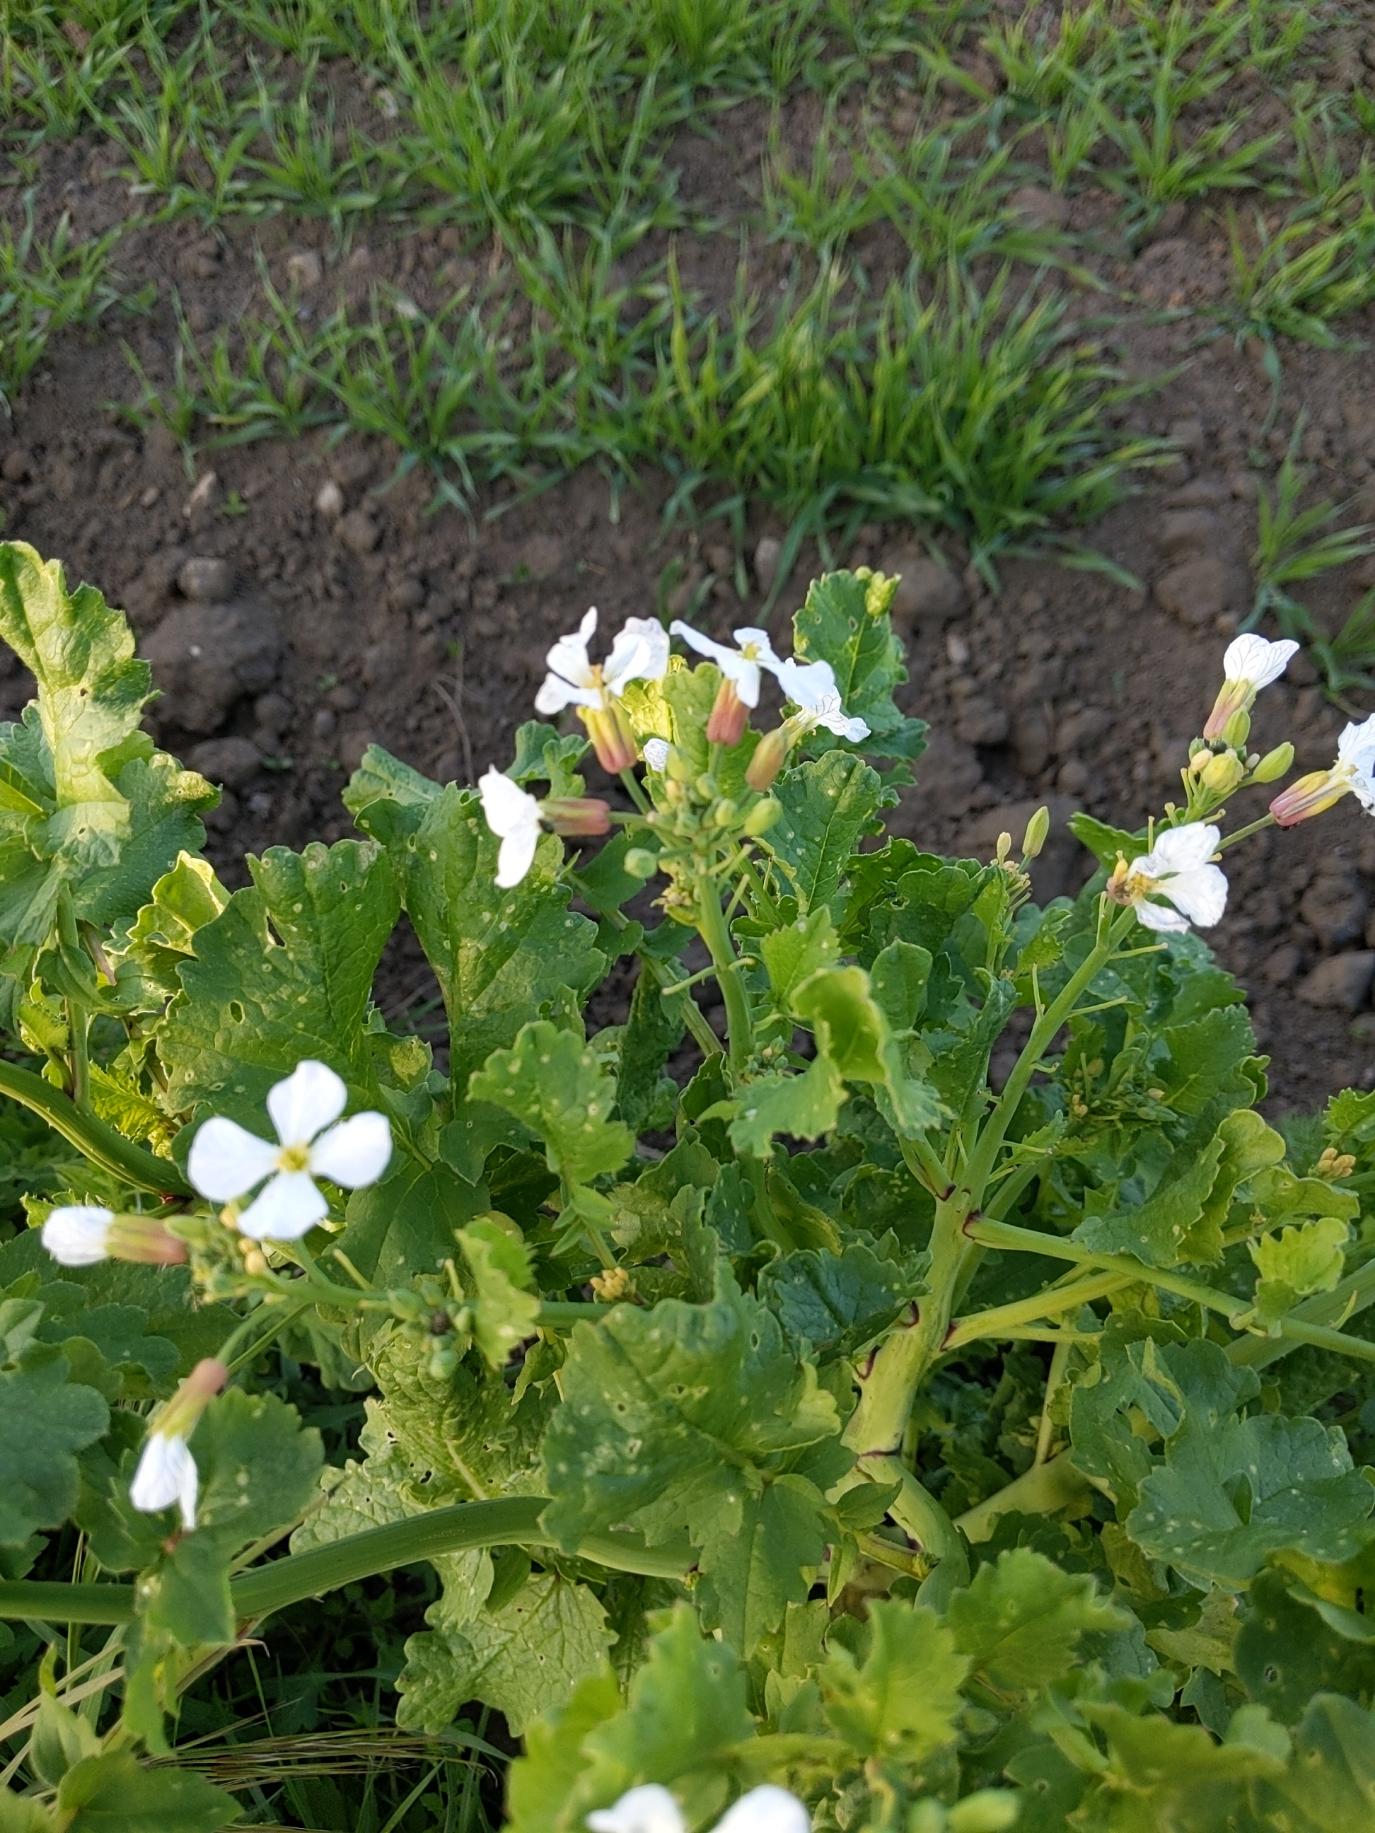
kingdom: Plantae
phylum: Tracheophyta
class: Magnoliopsida
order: Brassicales
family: Brassicaceae
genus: Raphanus
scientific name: Raphanus sativus
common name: Olie-ræddike
